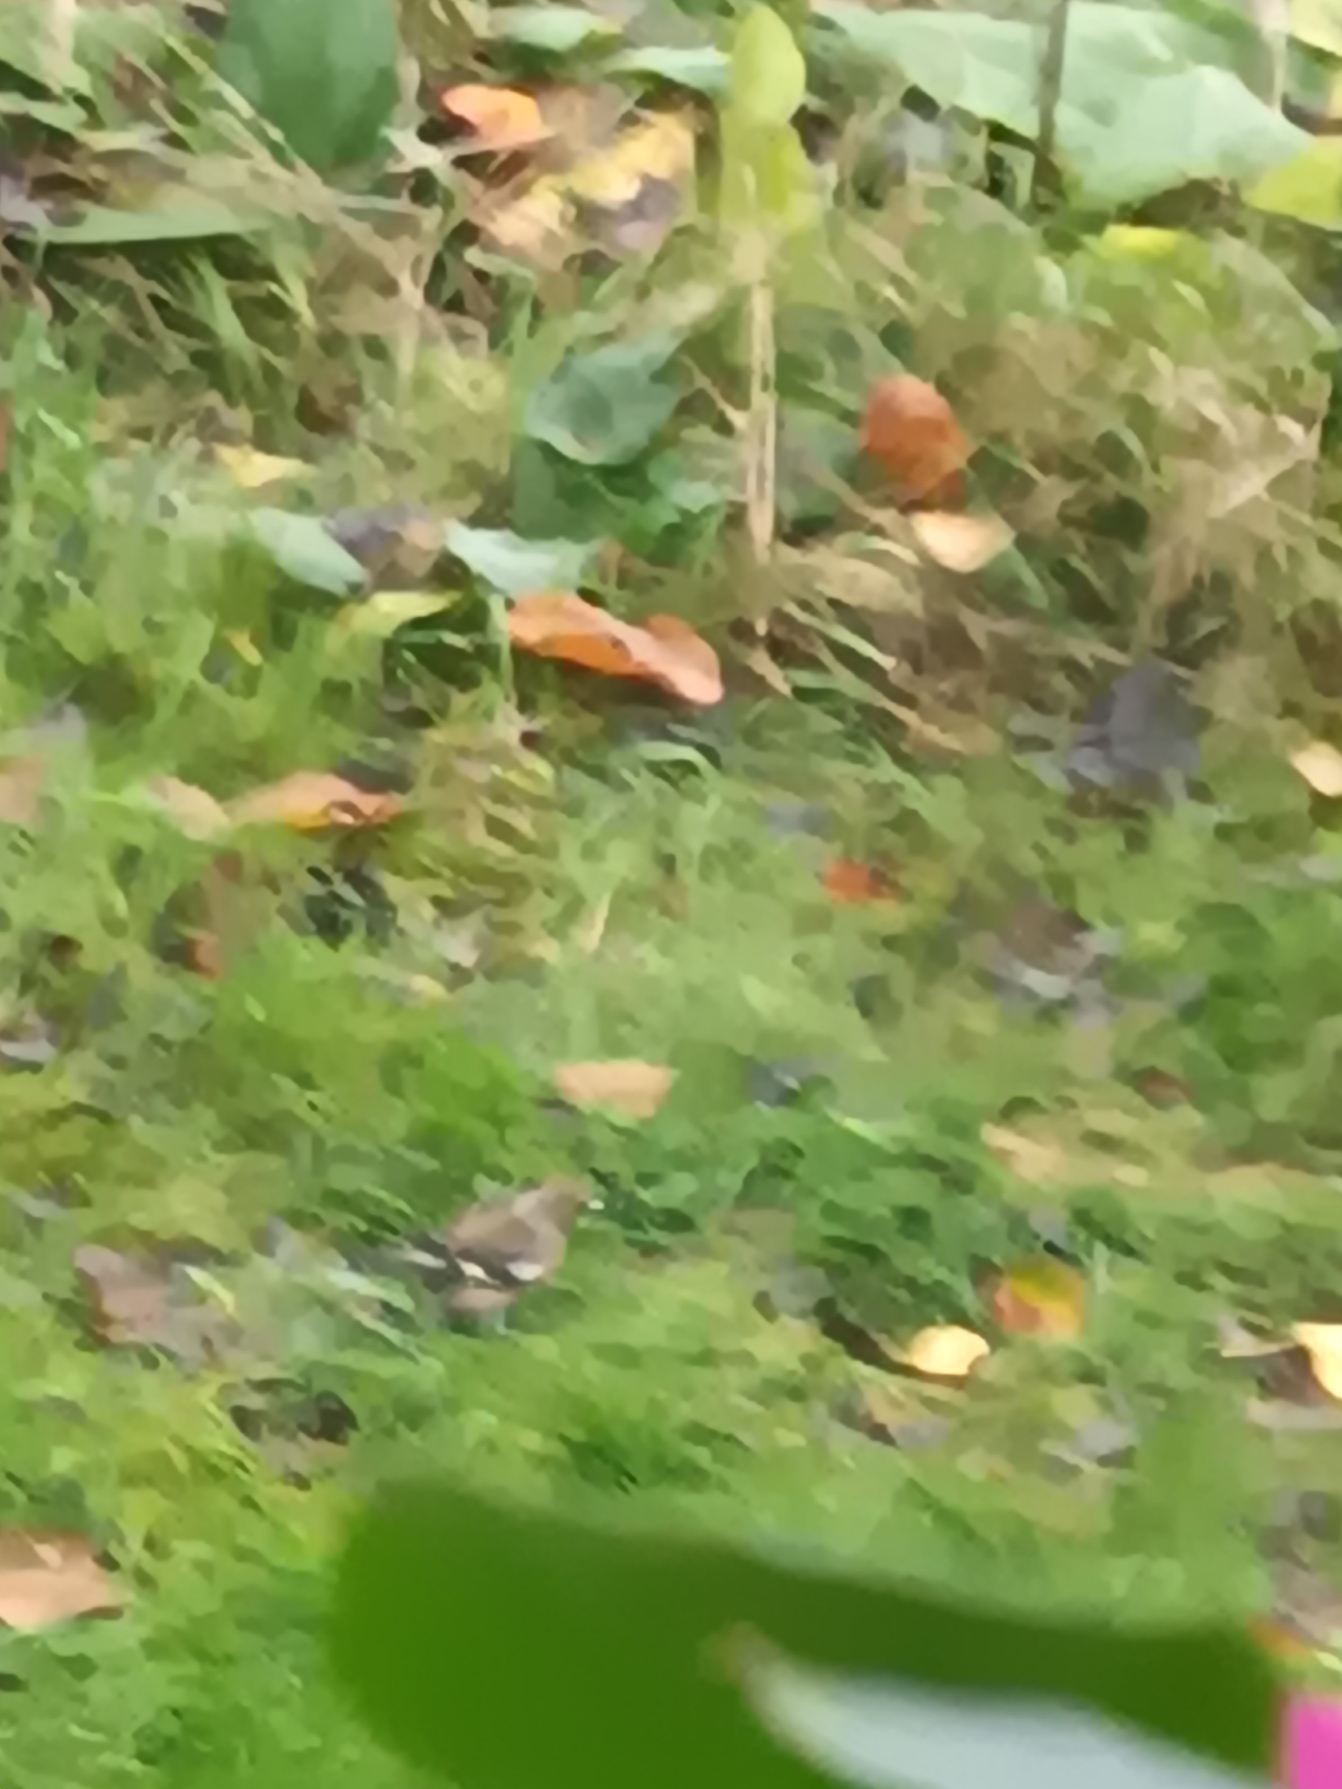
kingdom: Animalia
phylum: Chordata
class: Aves
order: Passeriformes
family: Fringillidae
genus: Fringilla
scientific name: Fringilla coelebs
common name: Bogfinke
